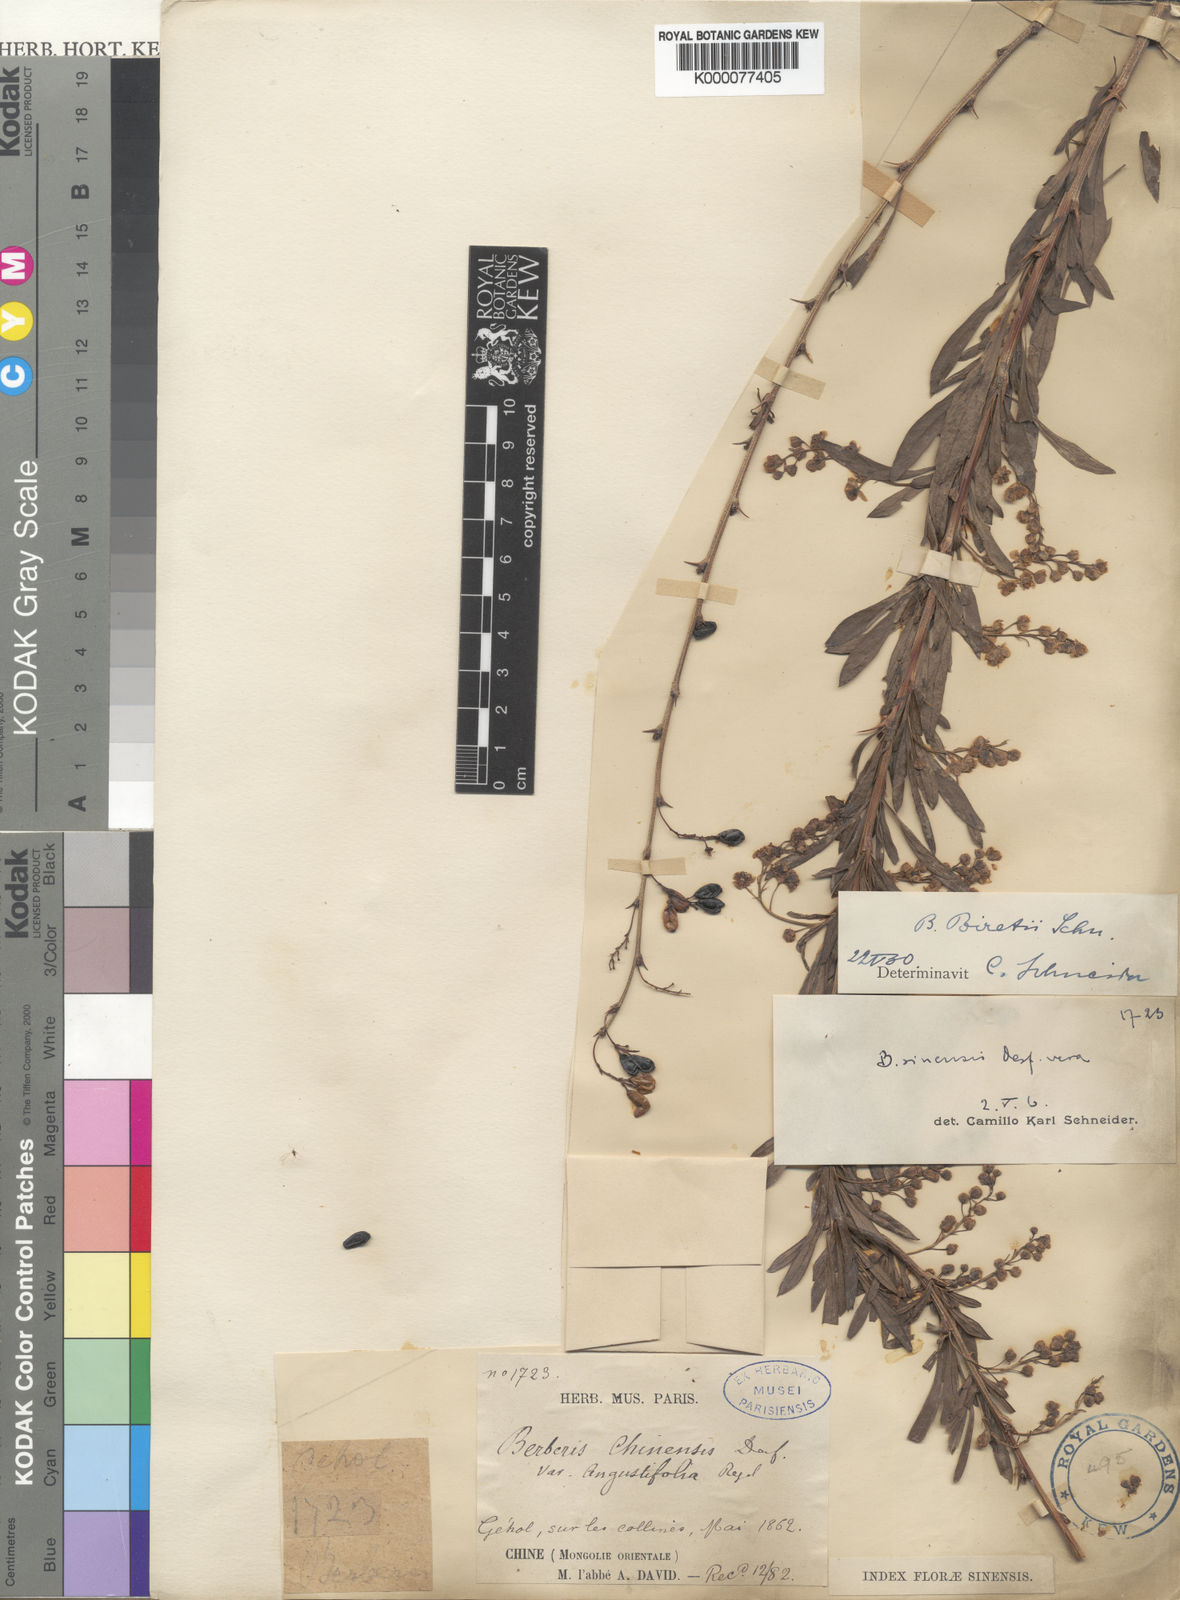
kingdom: Plantae
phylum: Tracheophyta
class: Magnoliopsida
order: Ranunculales
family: Berberidaceae
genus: Berberis
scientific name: Berberis chinensis
